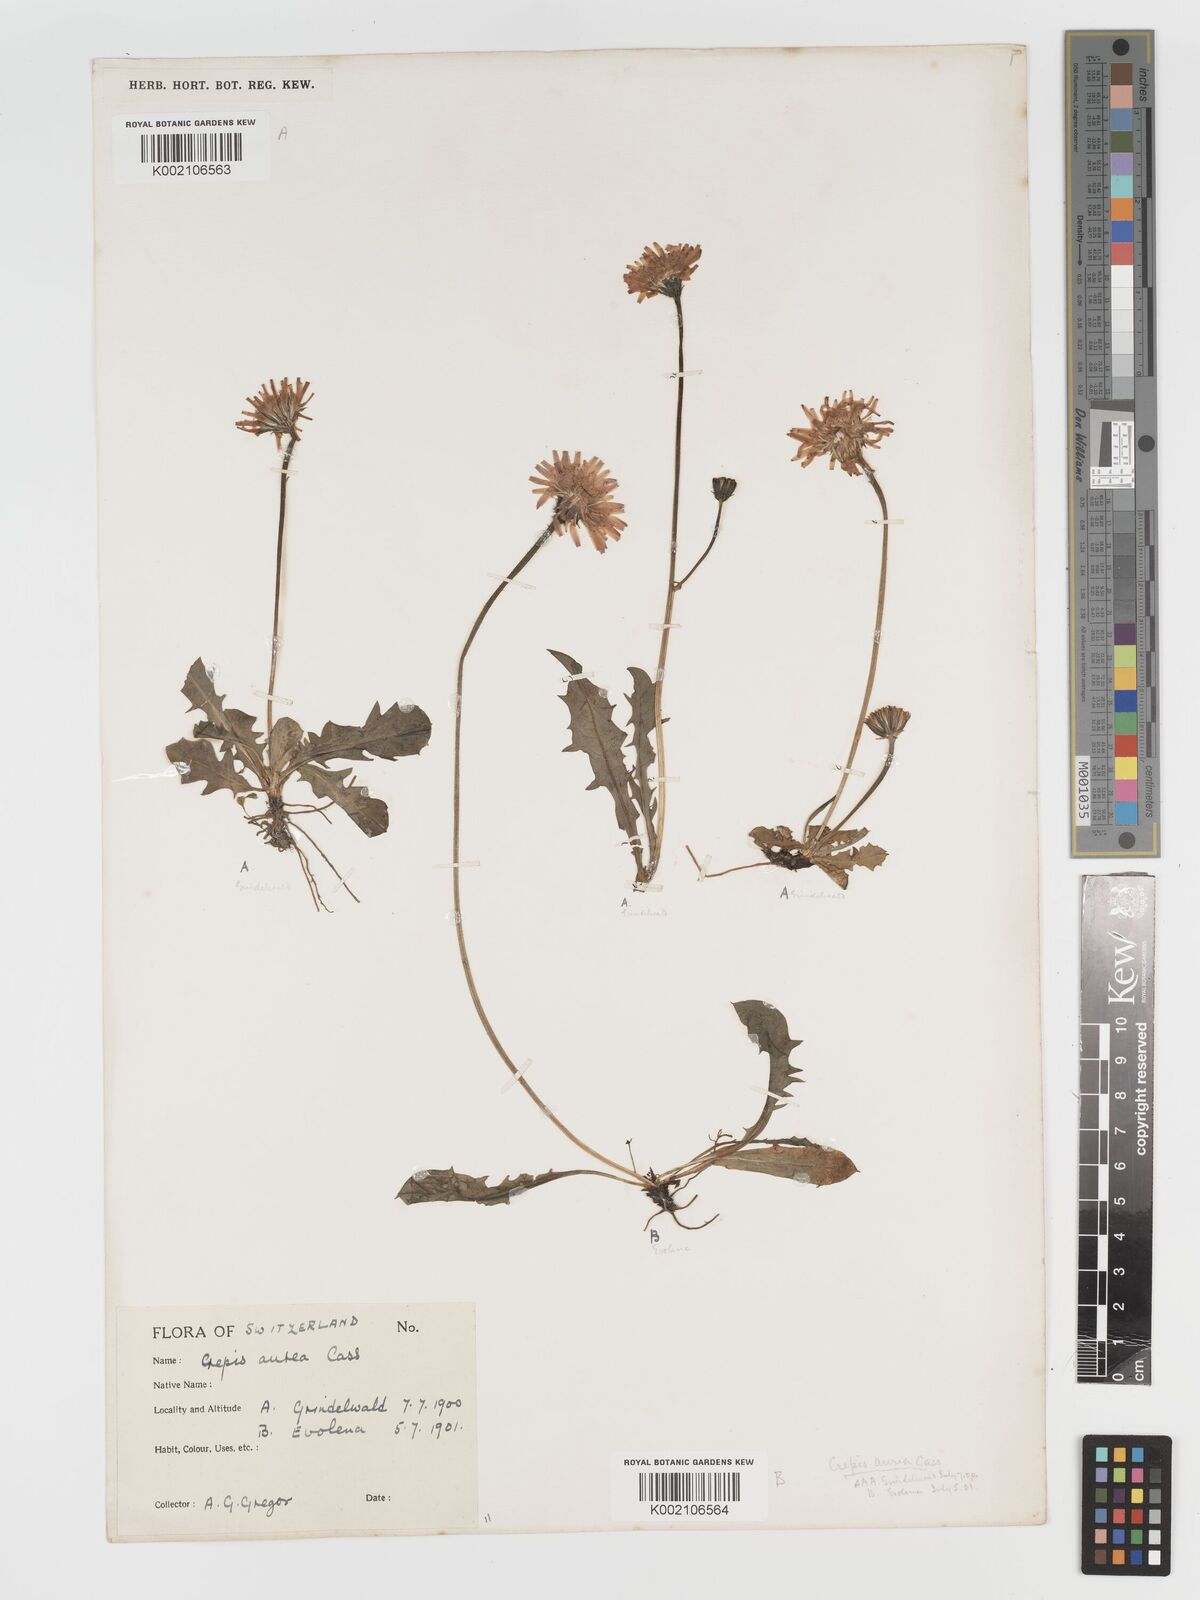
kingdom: Plantae
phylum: Tracheophyta
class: Magnoliopsida
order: Asterales
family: Asteraceae
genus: Crepis
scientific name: Crepis aurea
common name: Golden hawk's-beard
